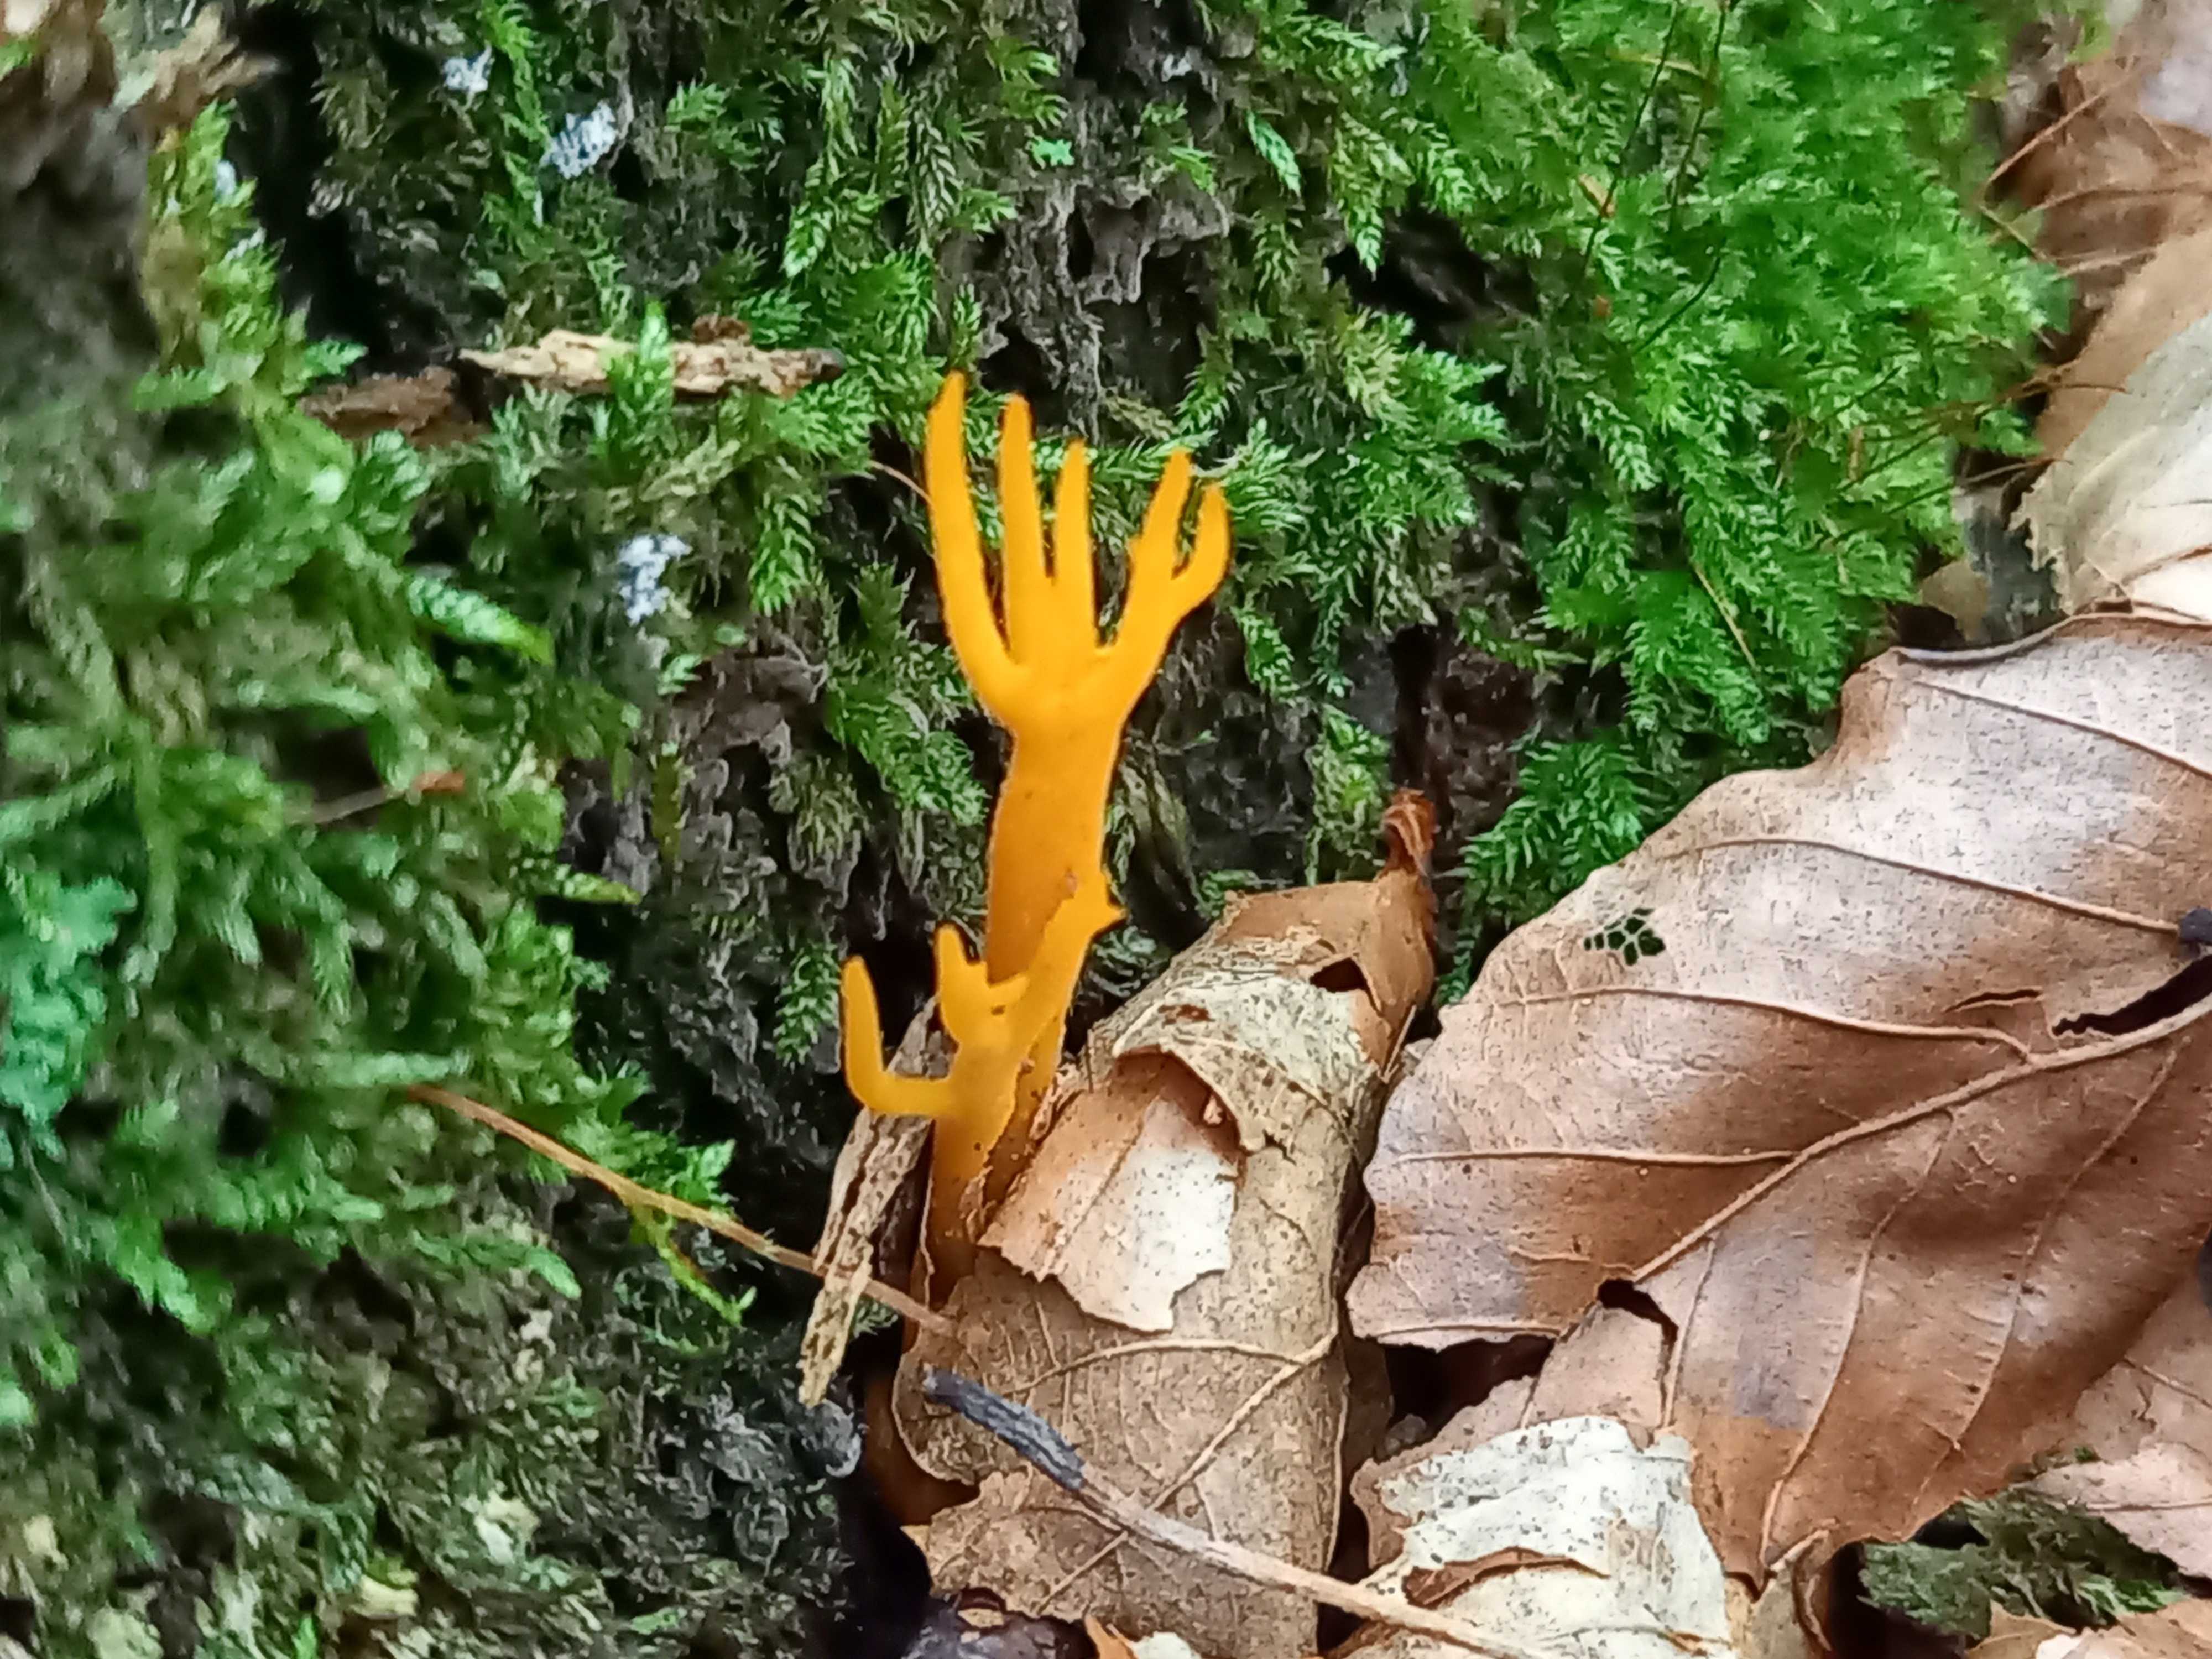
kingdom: Fungi
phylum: Basidiomycota
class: Dacrymycetes
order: Dacrymycetales
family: Dacrymycetaceae
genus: Calocera
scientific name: Calocera viscosa
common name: almindelig guldgaffel
